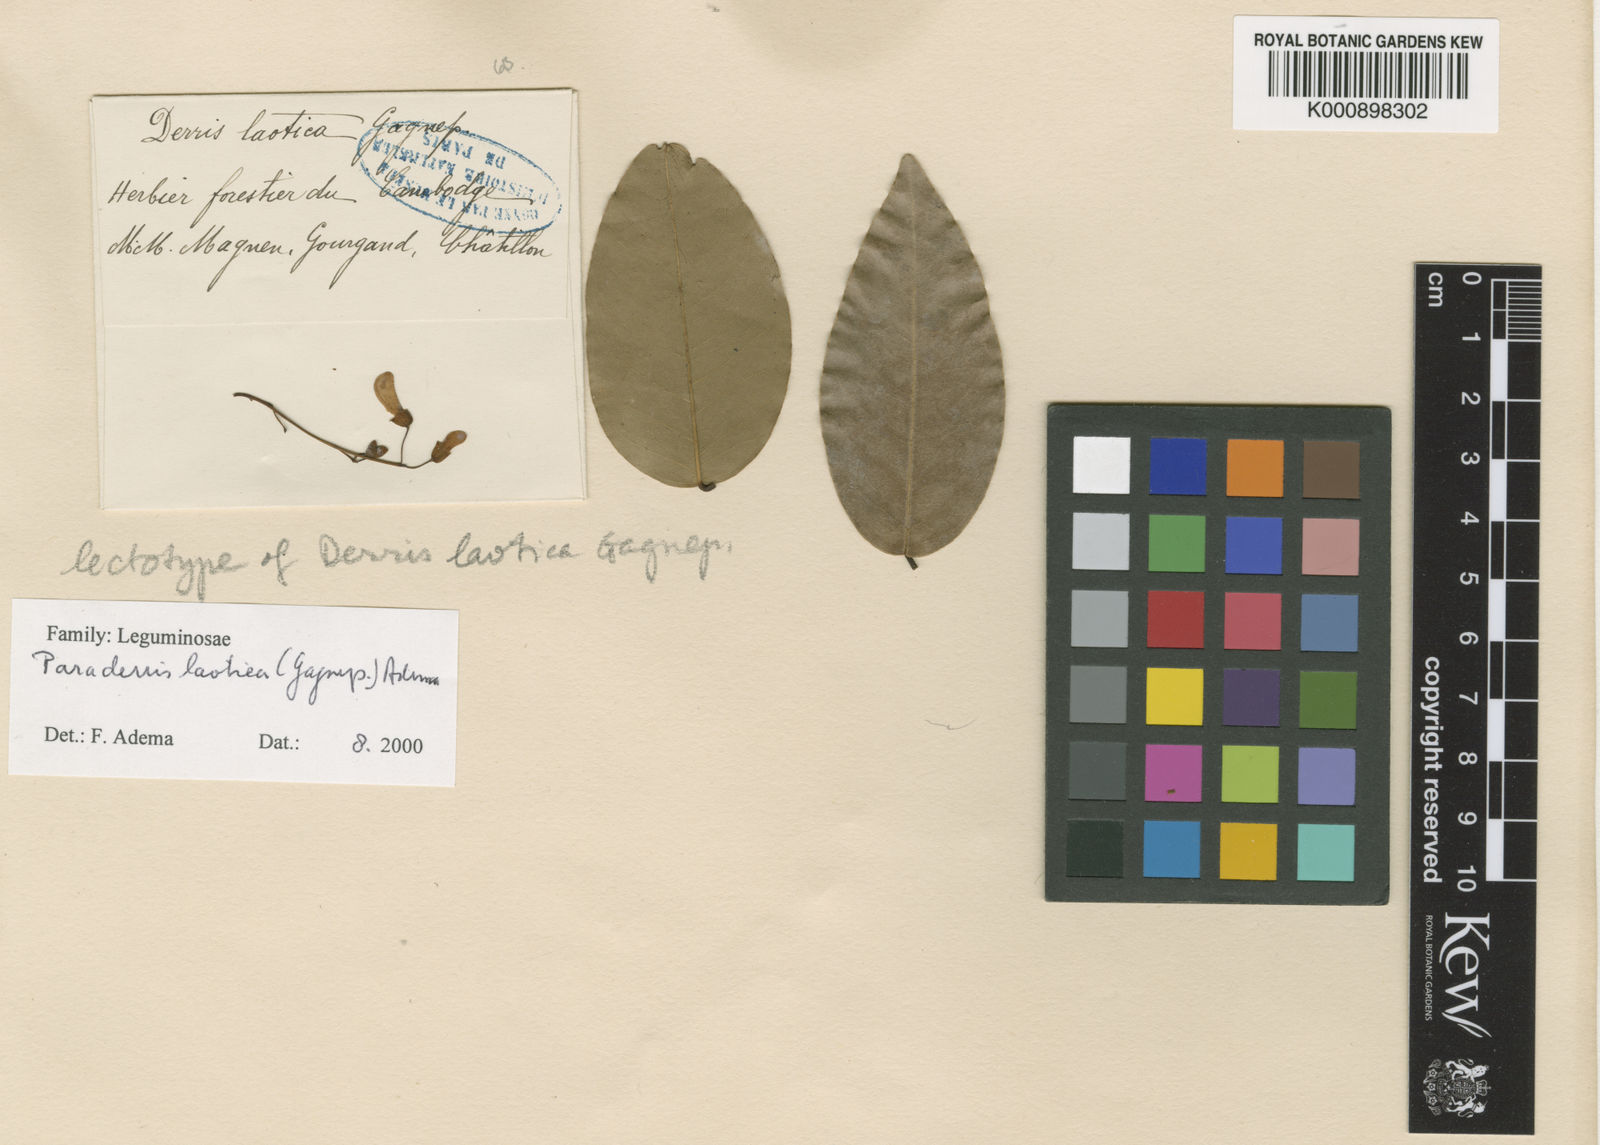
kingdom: Plantae
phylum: Tracheophyta
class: Magnoliopsida
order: Fabales
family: Fabaceae
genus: Derris
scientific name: Derris laotica
